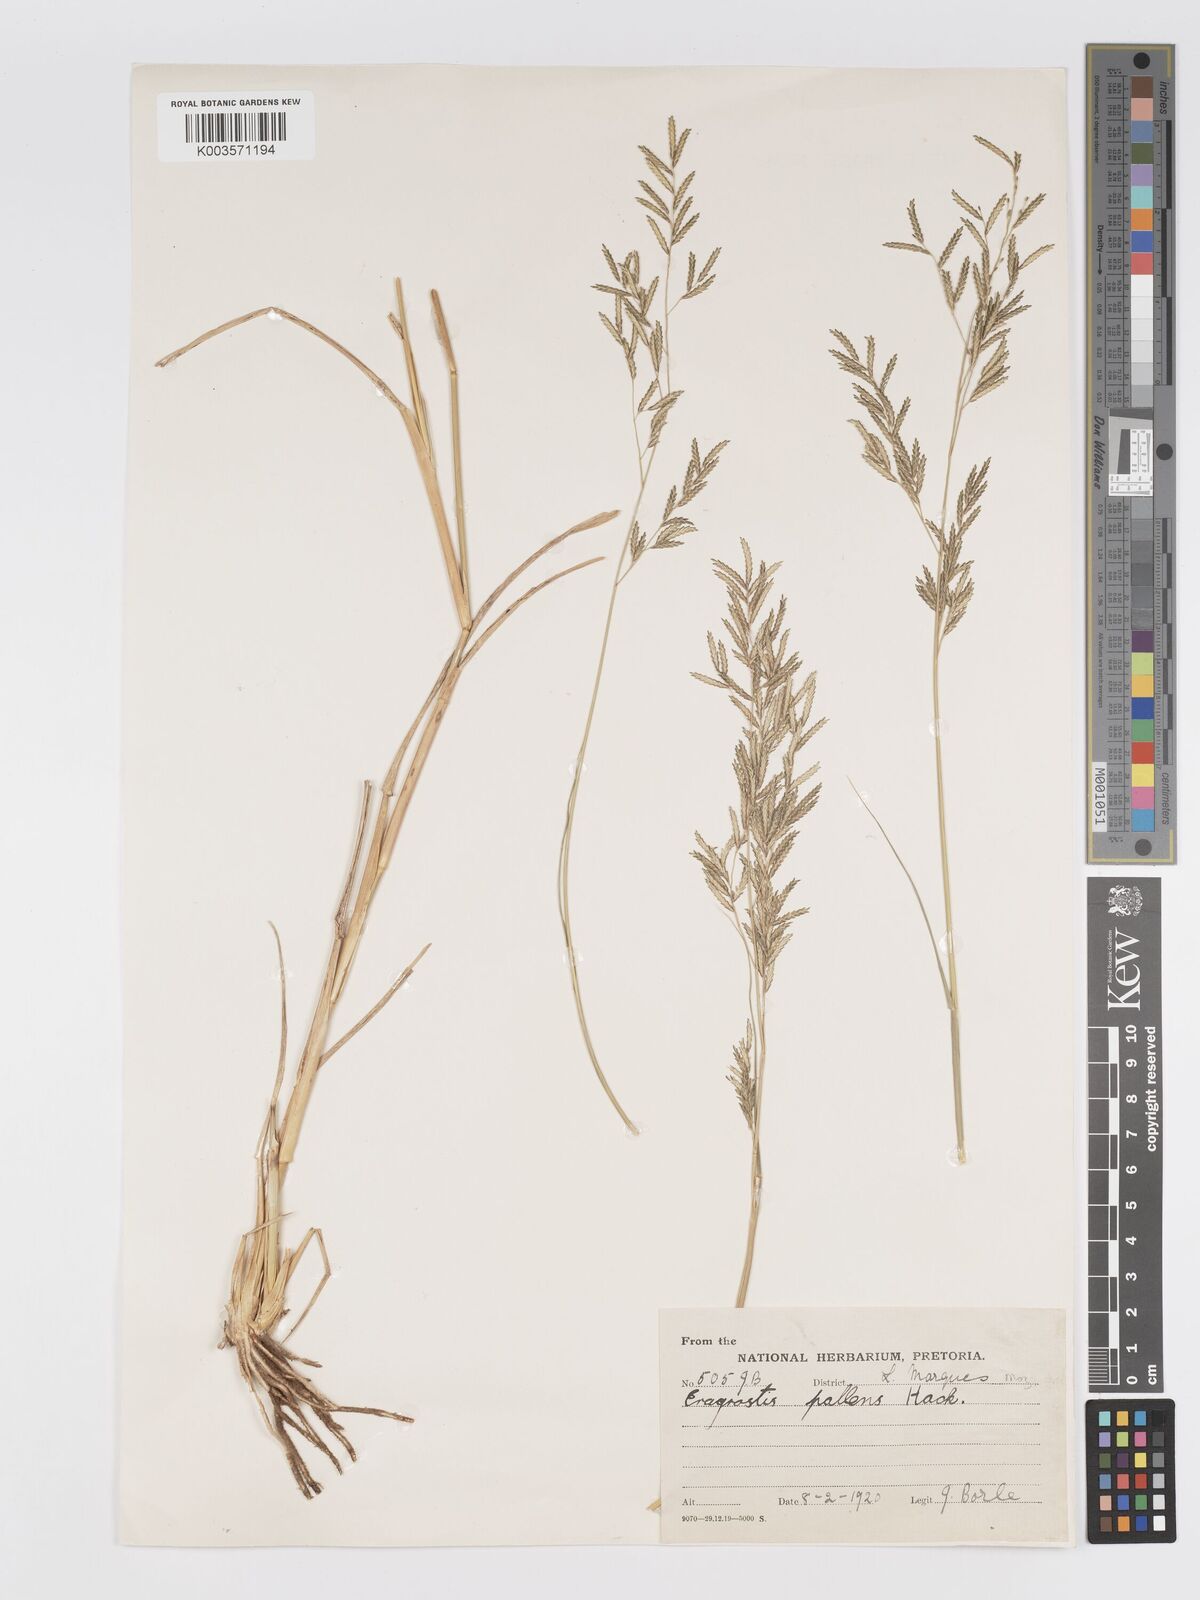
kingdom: Plantae
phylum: Tracheophyta
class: Liliopsida
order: Poales
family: Poaceae
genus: Eragrostis
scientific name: Eragrostis pallens
